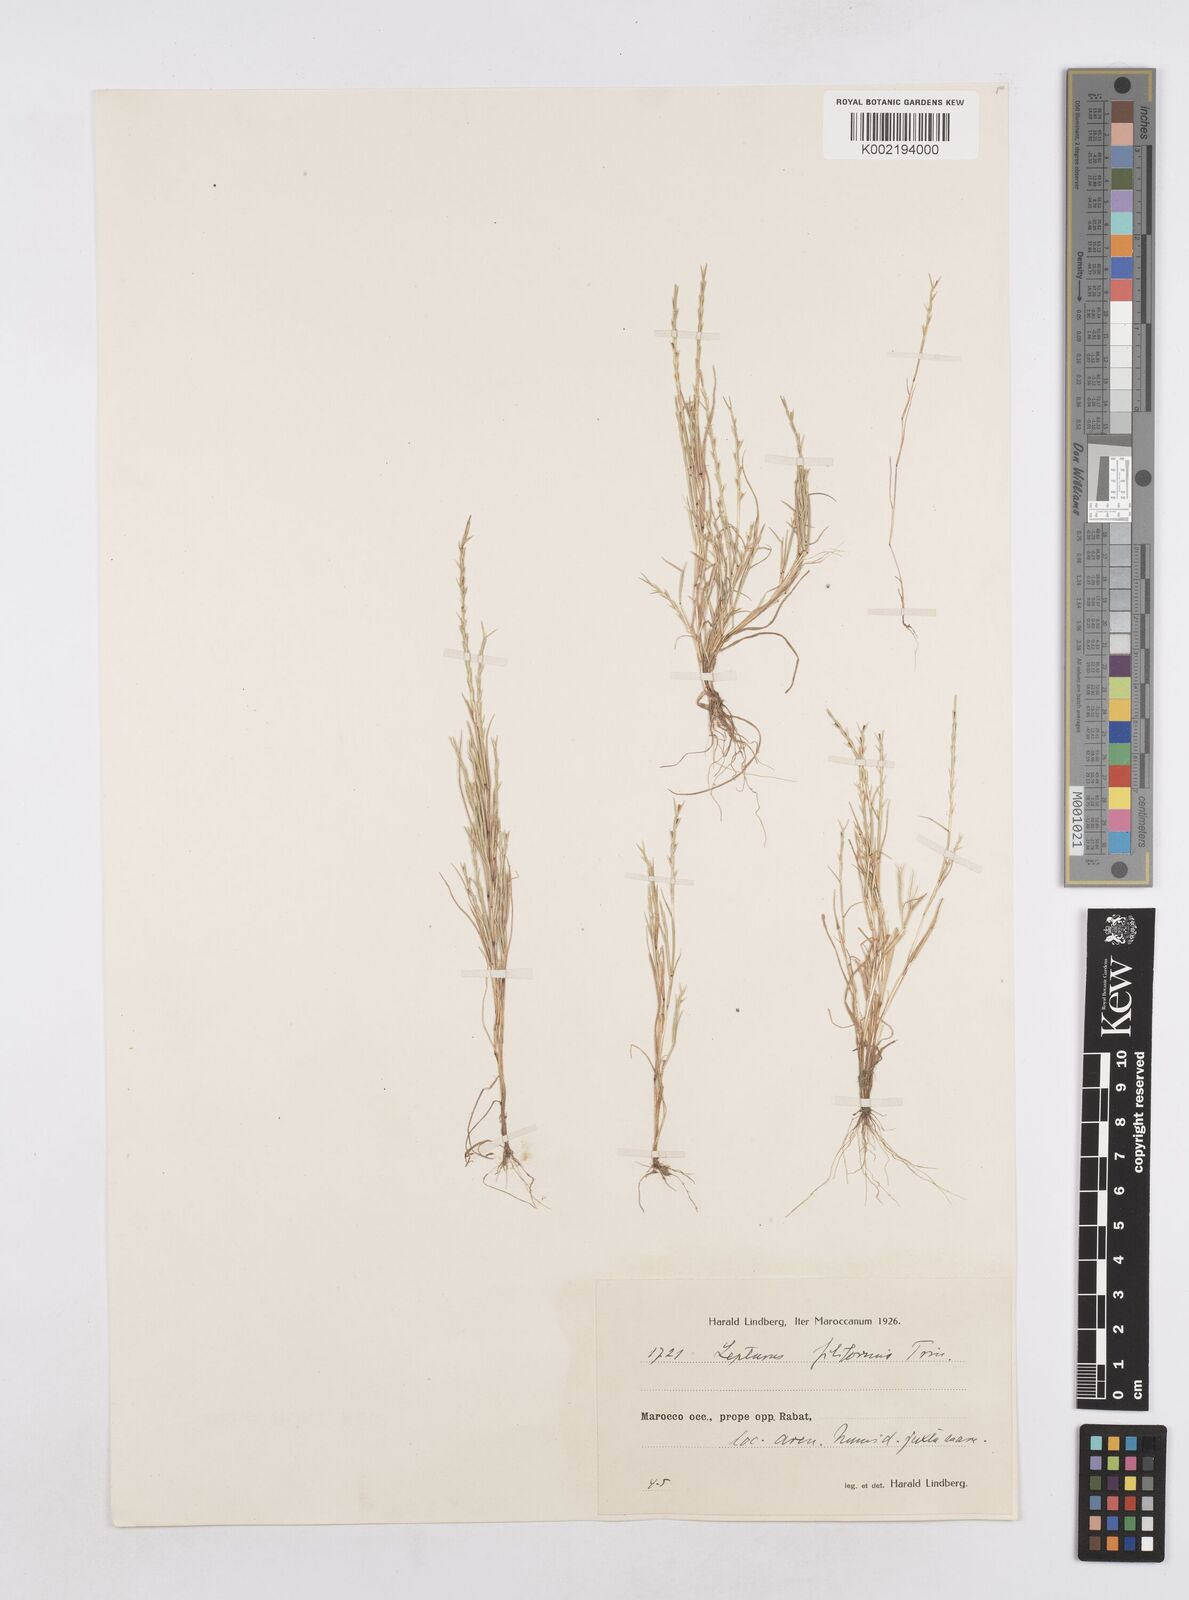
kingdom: Plantae
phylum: Tracheophyta
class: Liliopsida
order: Poales
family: Poaceae
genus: Parapholis
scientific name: Parapholis filiformis
